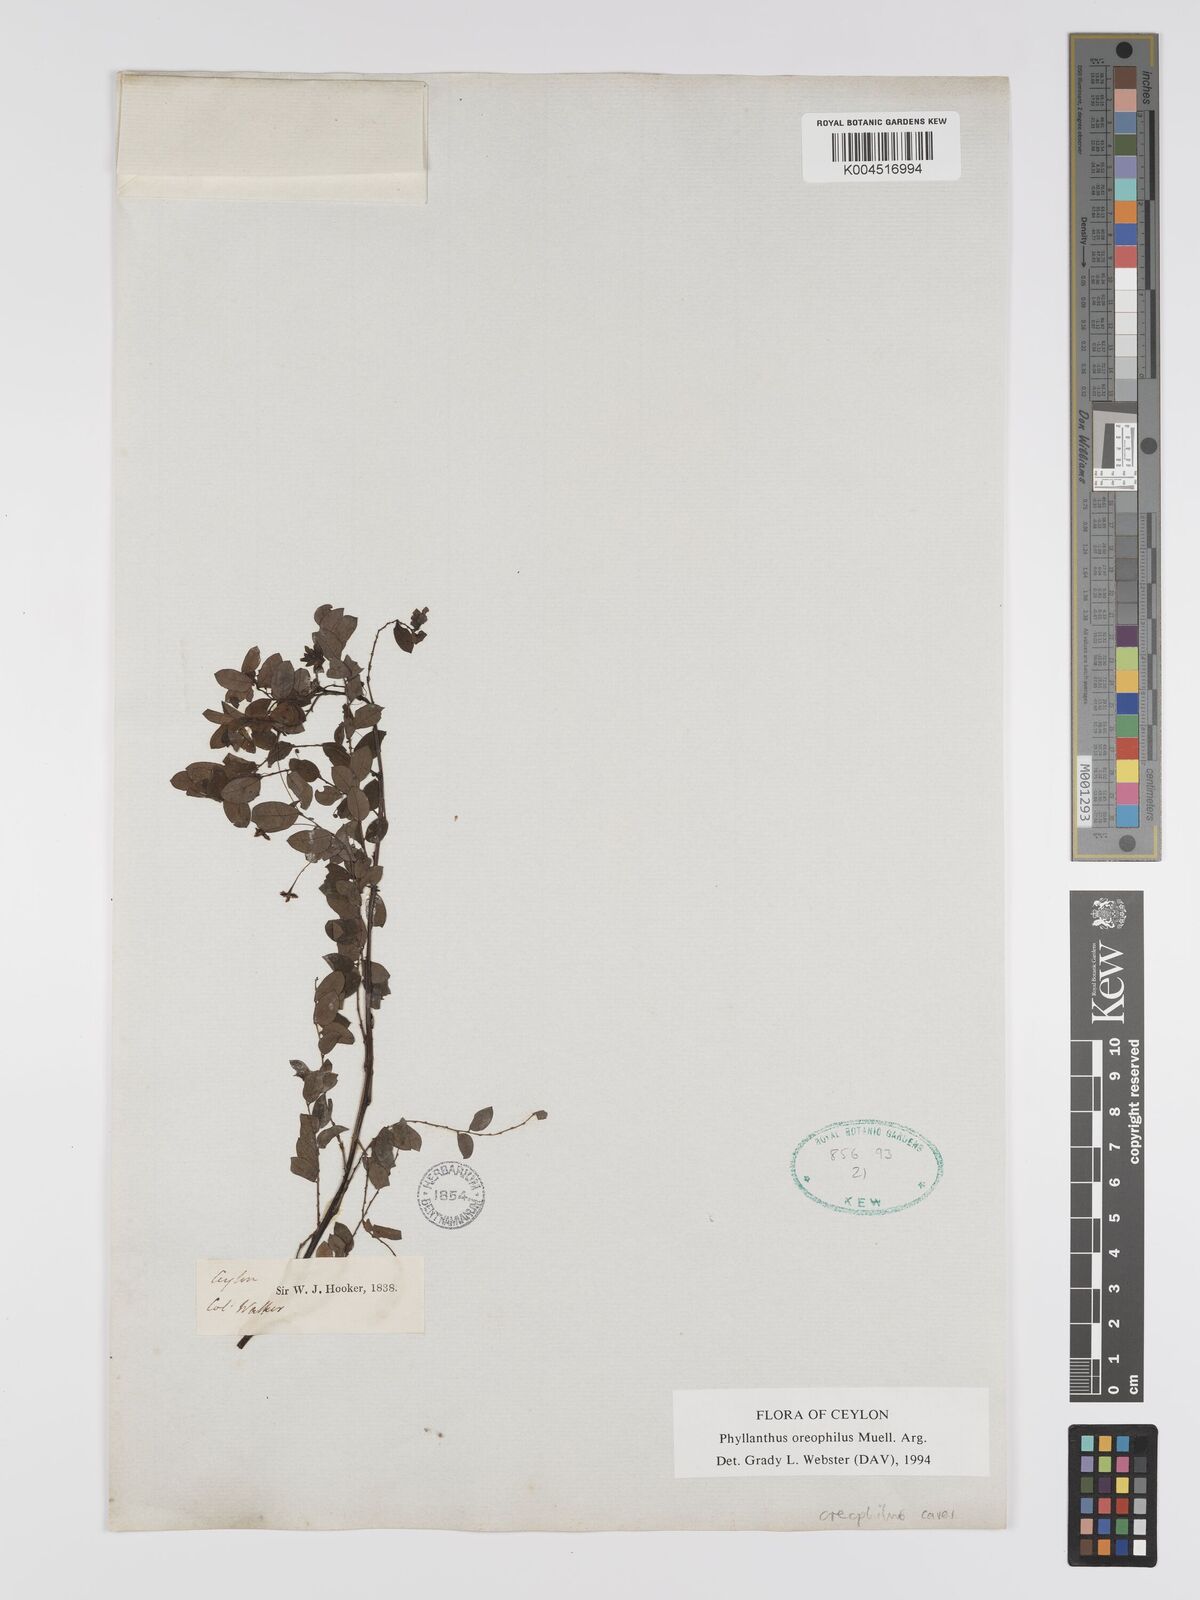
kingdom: Plantae
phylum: Tracheophyta
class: Magnoliopsida
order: Malpighiales
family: Phyllanthaceae
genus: Phyllanthus
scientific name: Phyllanthus oreophilus
